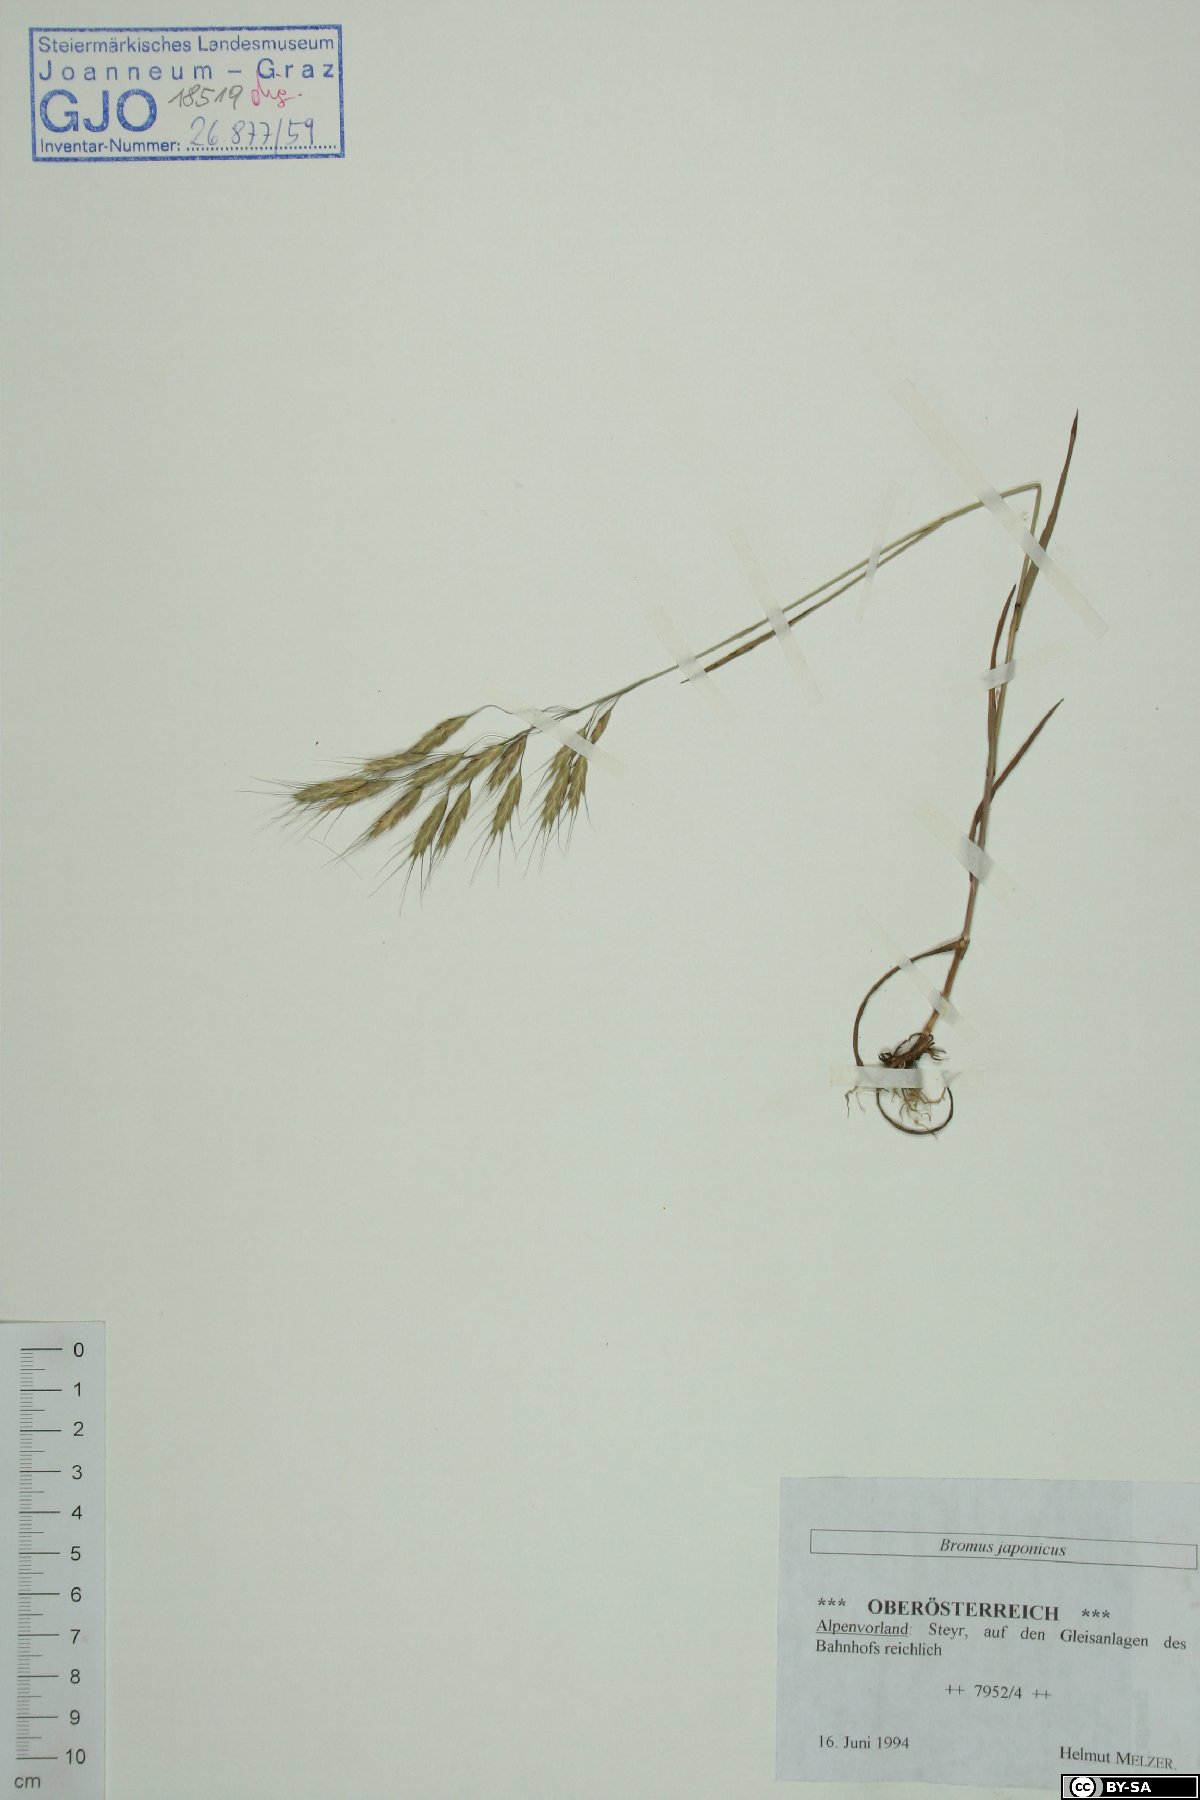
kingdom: Plantae
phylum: Tracheophyta
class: Liliopsida
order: Poales
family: Poaceae
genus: Bromus
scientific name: Bromus japonicus
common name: Japanese brome
